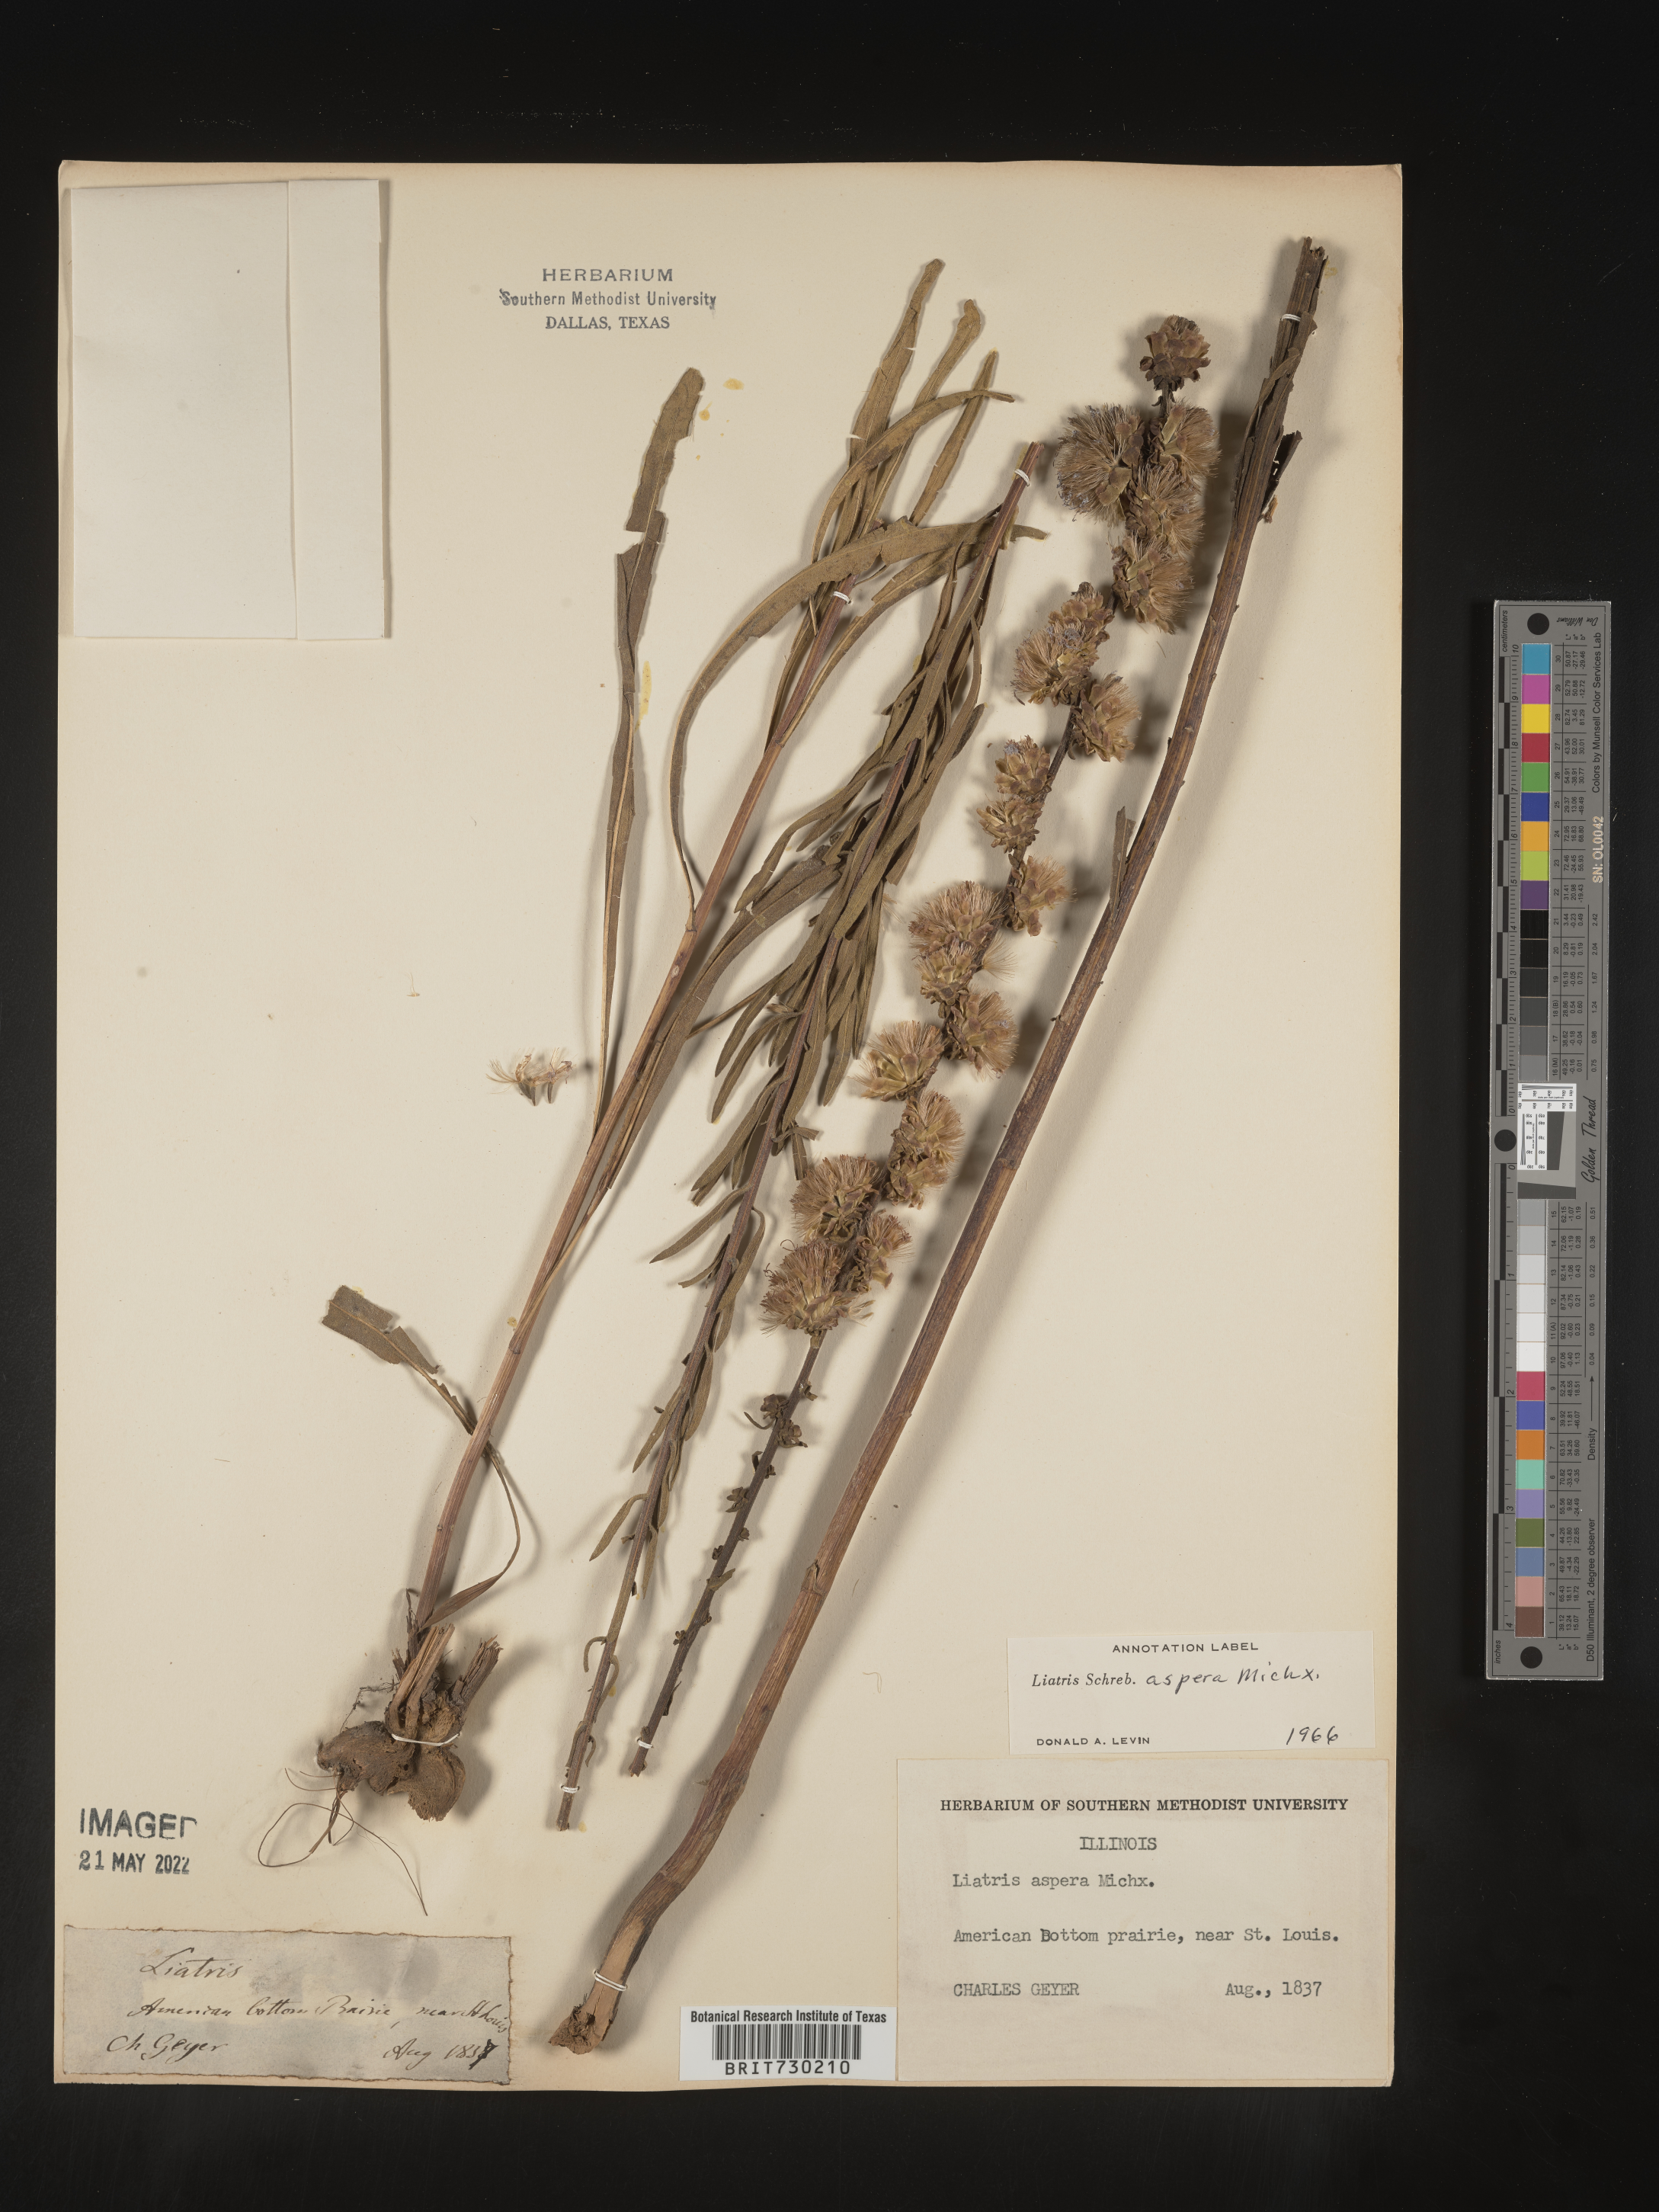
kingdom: Plantae
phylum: Tracheophyta
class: Magnoliopsida
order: Asterales
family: Asteraceae
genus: Liatris
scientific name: Liatris aspera
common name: Lacerate blazing-star
